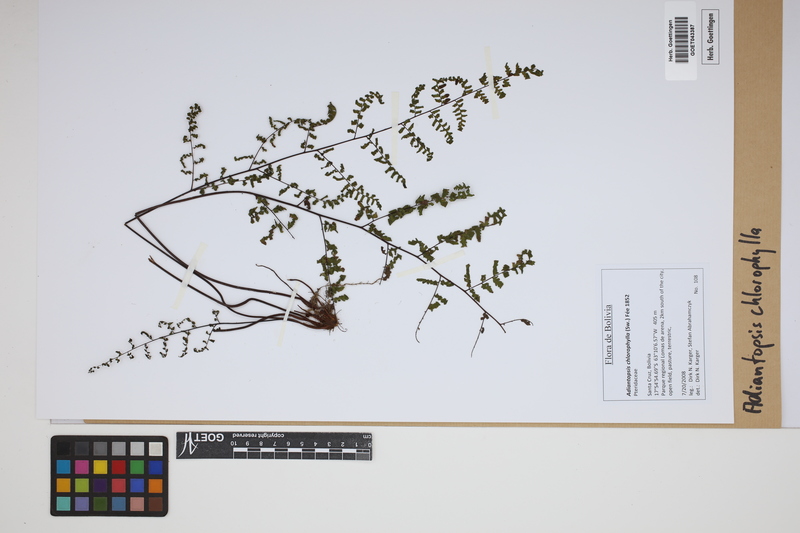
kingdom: Plantae
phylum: Tracheophyta
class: Polypodiopsida
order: Polypodiales
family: Pteridaceae
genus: Adiantopsis
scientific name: Adiantopsis chlorophylla
